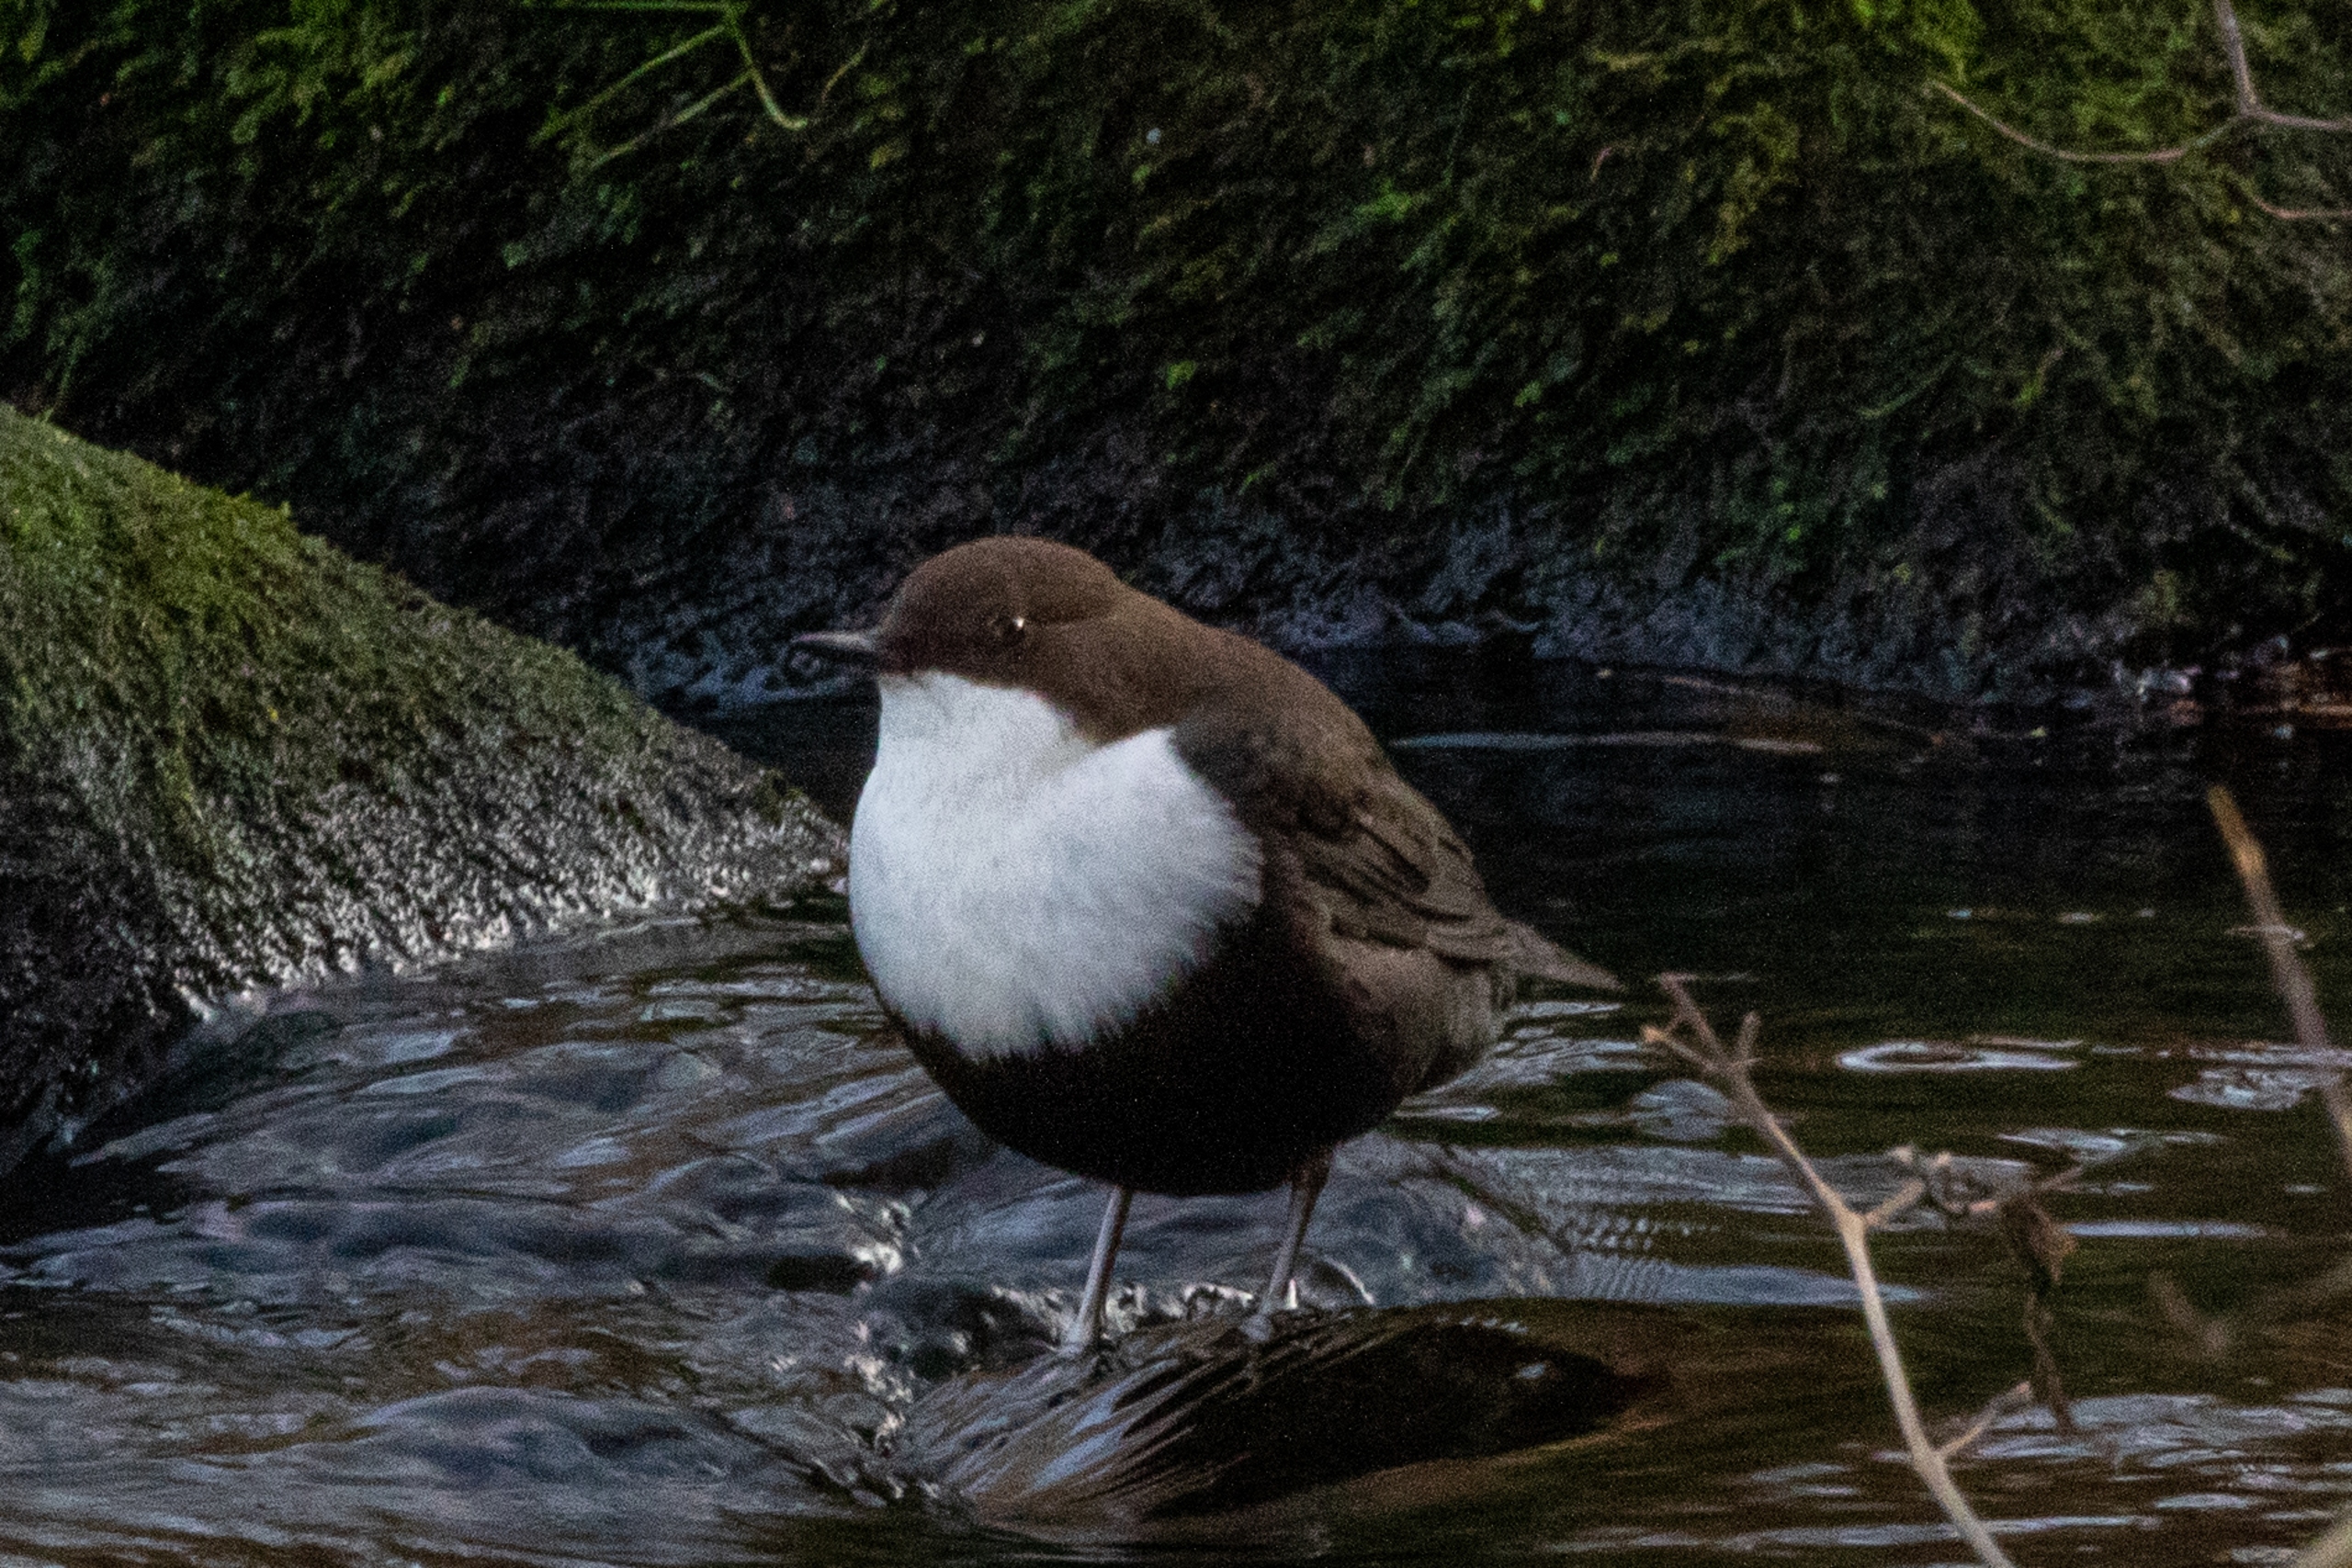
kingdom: Animalia
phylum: Chordata
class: Aves
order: Passeriformes
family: Cinclidae
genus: Cinclus
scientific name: Cinclus cinclus
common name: Vandstær
